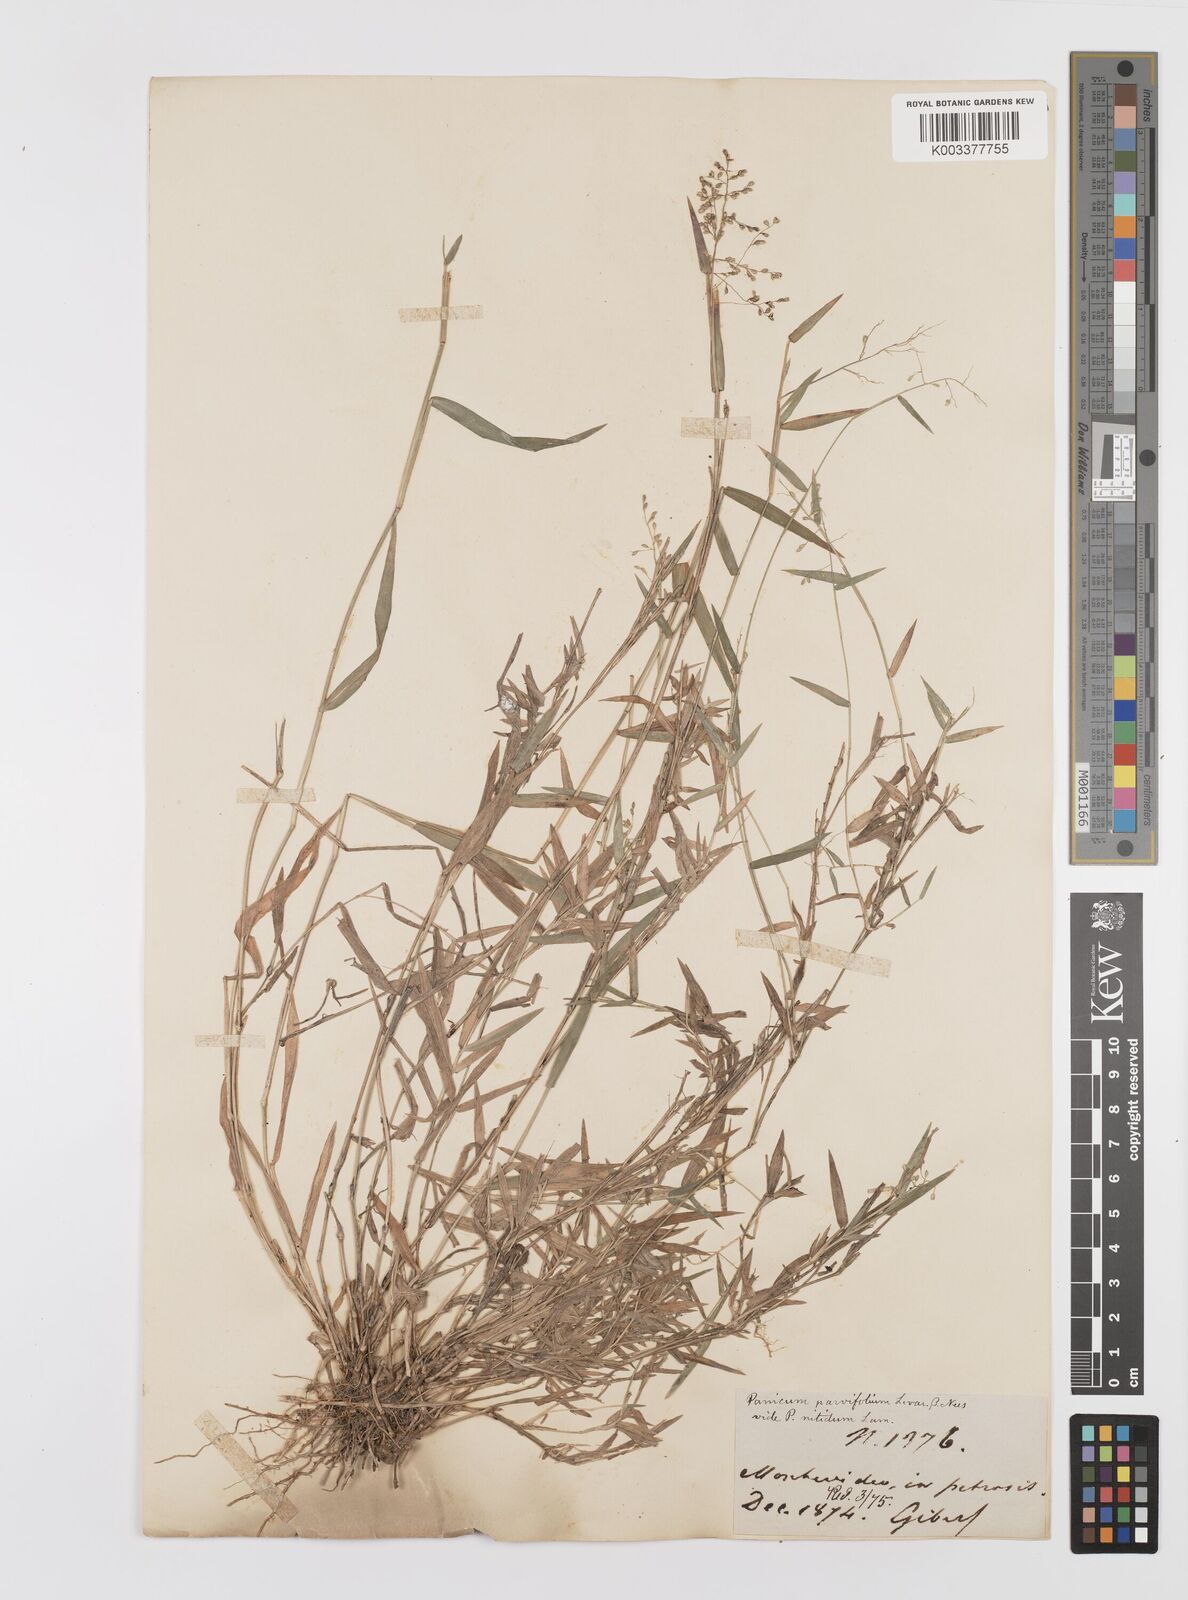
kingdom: Plantae
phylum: Tracheophyta
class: Liliopsida
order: Poales
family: Poaceae
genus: Trichanthecium
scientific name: Trichanthecium parvifolium
